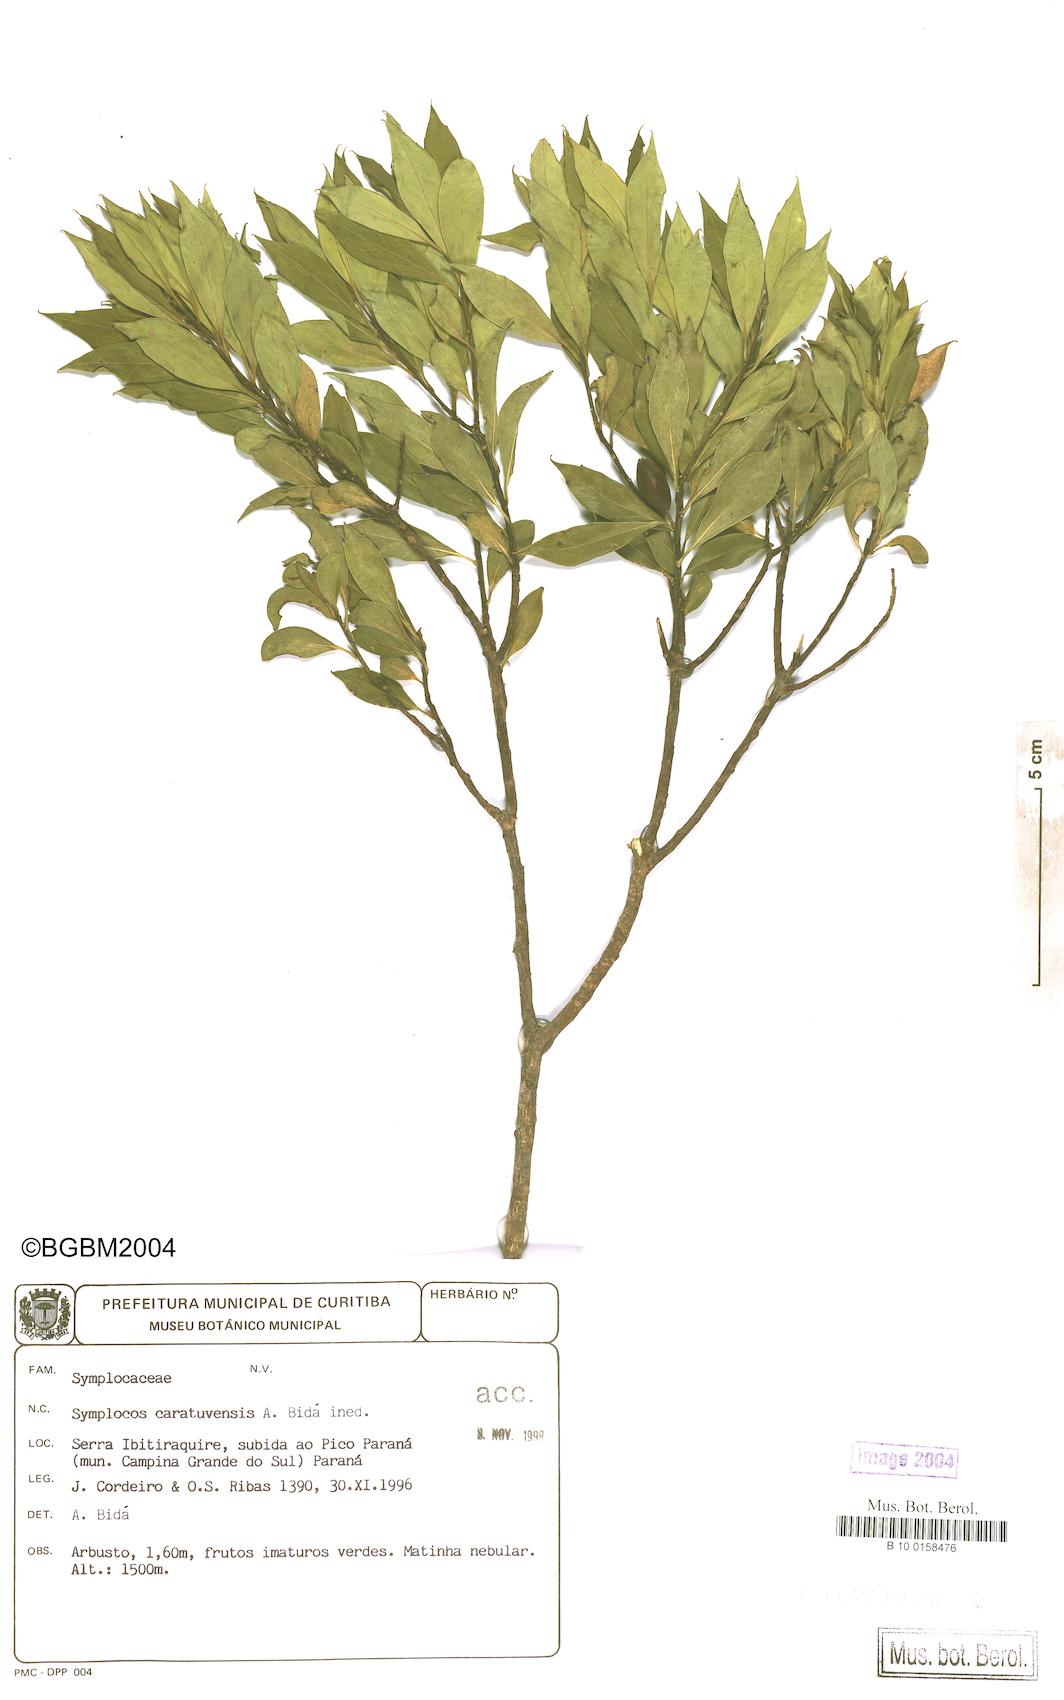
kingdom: Plantae
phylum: Tracheophyta
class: Magnoliopsida
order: Ericales
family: Symplocaceae
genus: Symplocos
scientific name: Symplocos incrassata
